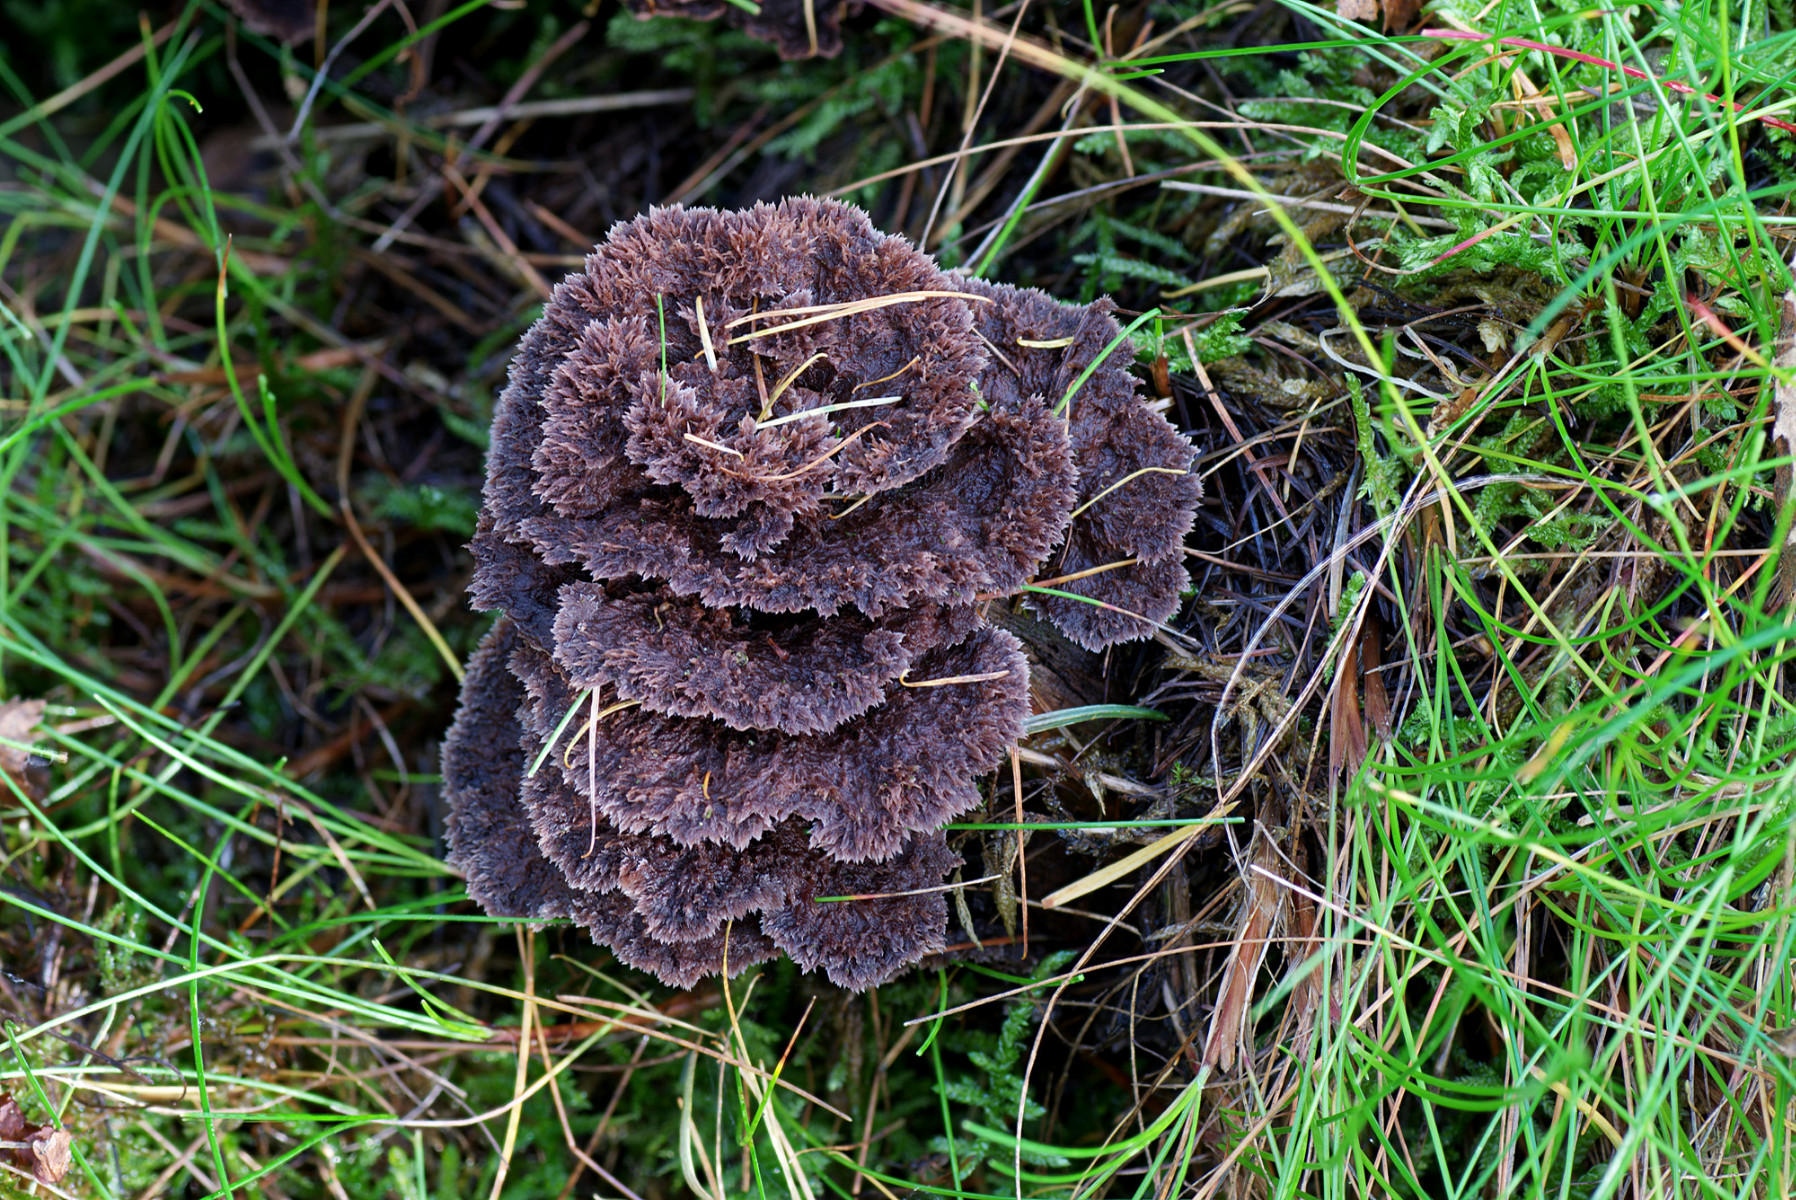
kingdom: Fungi
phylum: Basidiomycota
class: Agaricomycetes
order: Thelephorales
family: Thelephoraceae
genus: Thelephora
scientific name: Thelephora terrestris
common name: fliget frynsesvamp
